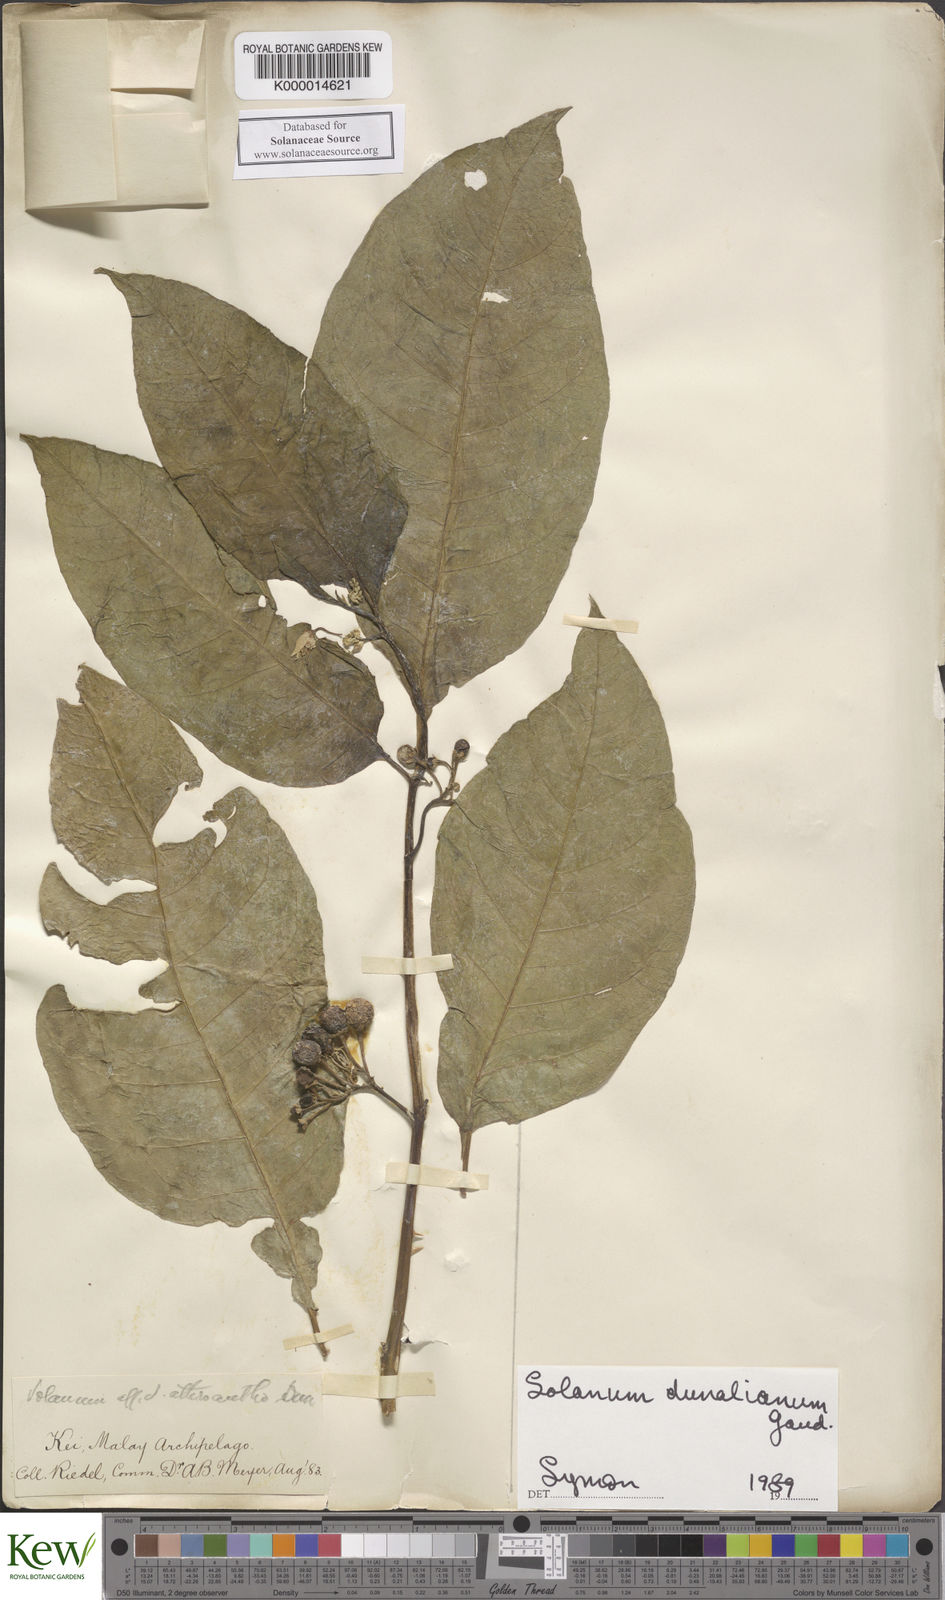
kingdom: Plantae
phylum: Tracheophyta
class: Magnoliopsida
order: Solanales
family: Solanaceae
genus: Solanum
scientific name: Solanum dunalianum
